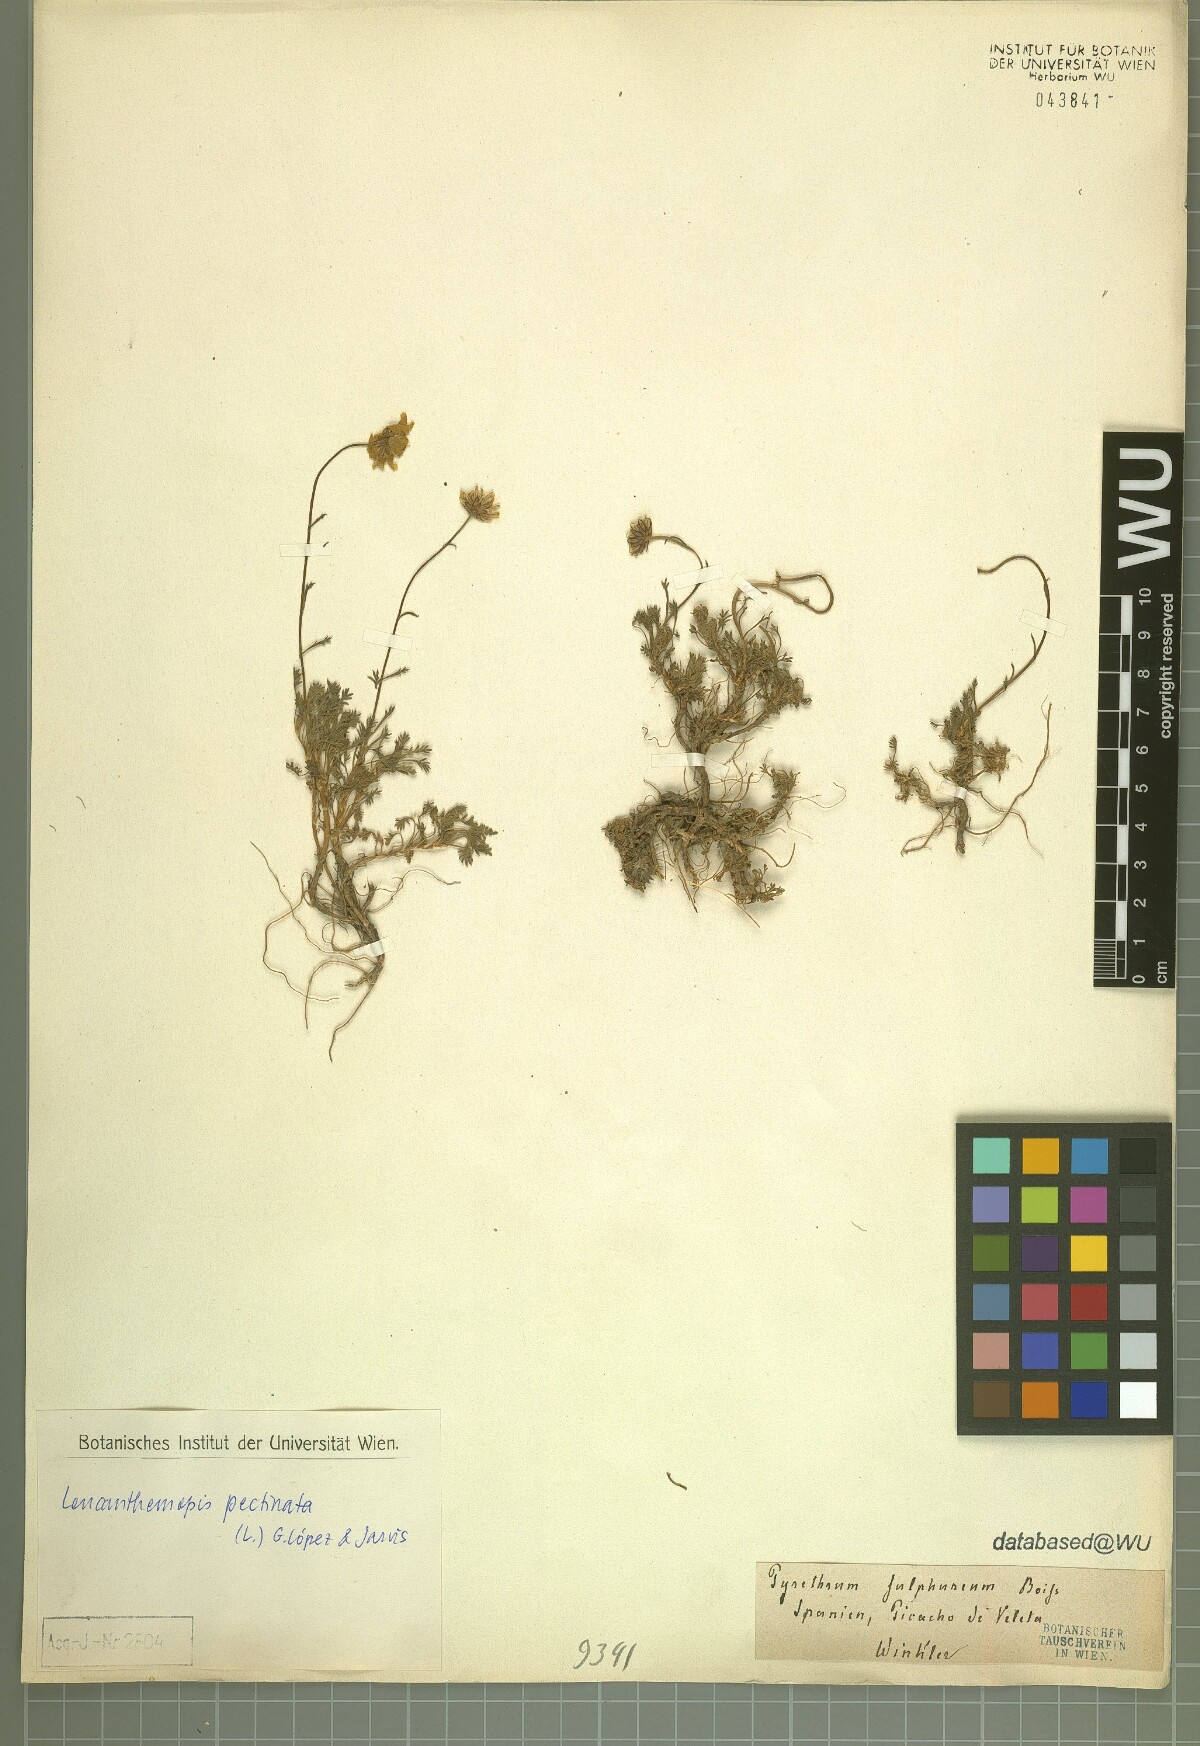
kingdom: Plantae
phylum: Tracheophyta
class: Magnoliopsida
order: Asterales
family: Asteraceae
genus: Leucanthemopsis
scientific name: Leucanthemopsis pectinata
